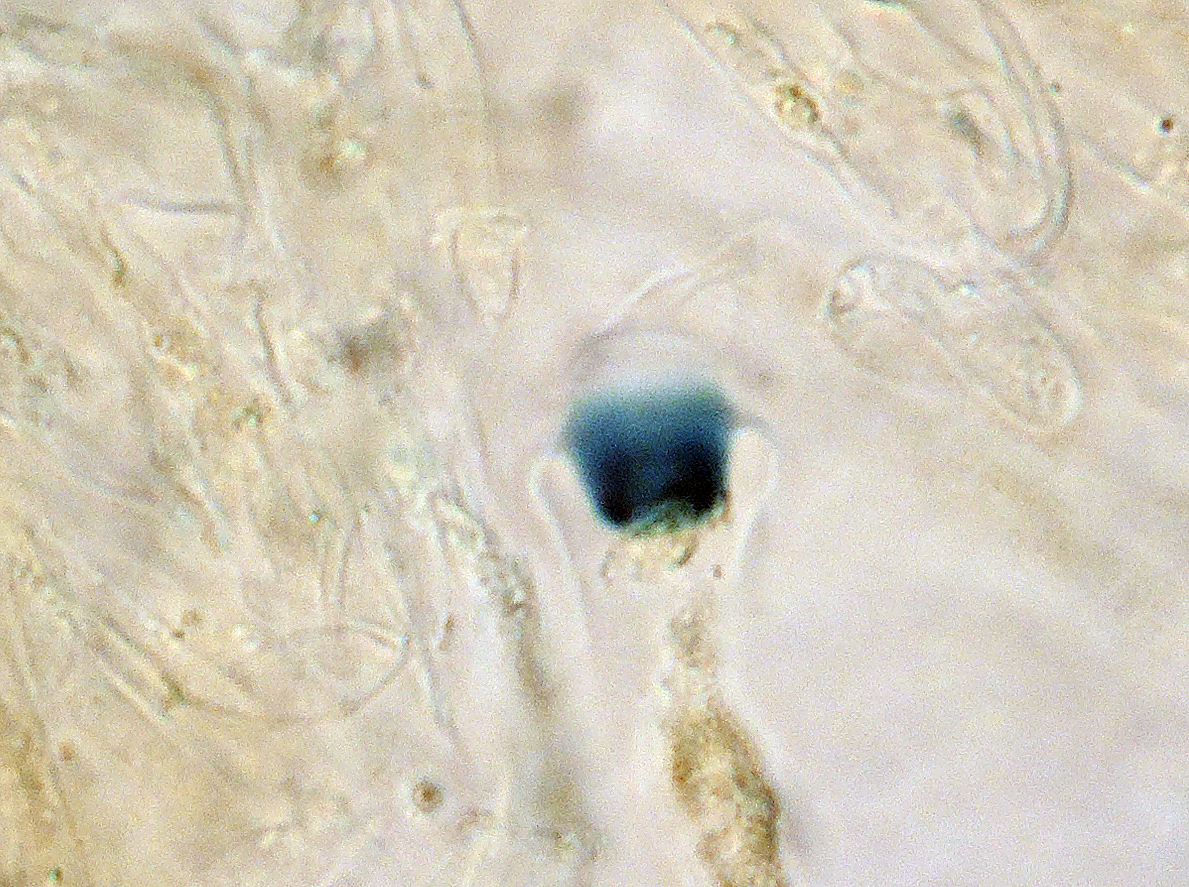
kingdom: Fungi
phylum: Ascomycota
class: Sordariomycetes
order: Xylariales
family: Xylariaceae
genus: Hypocopra
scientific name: Hypocopra brefeldii
